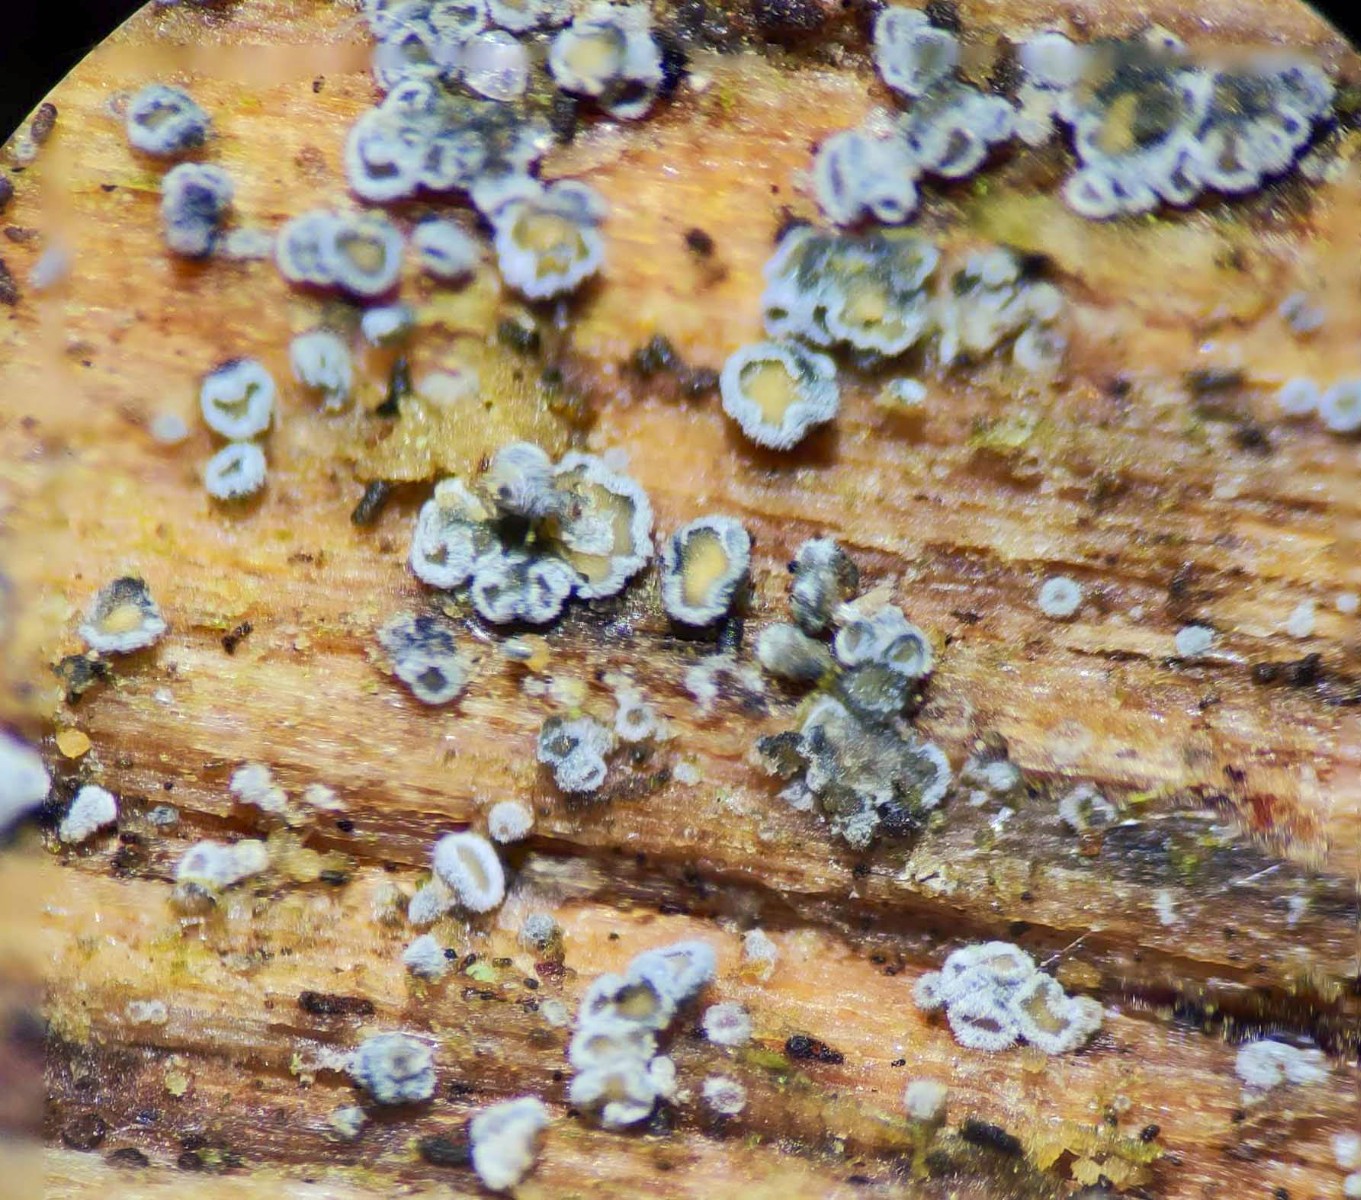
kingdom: Fungi
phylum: Ascomycota
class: Leotiomycetes
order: Helotiales
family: Lachnaceae
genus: Proliferodiscus
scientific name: Proliferodiscus pulveraceus
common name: askegrå frynseskive
